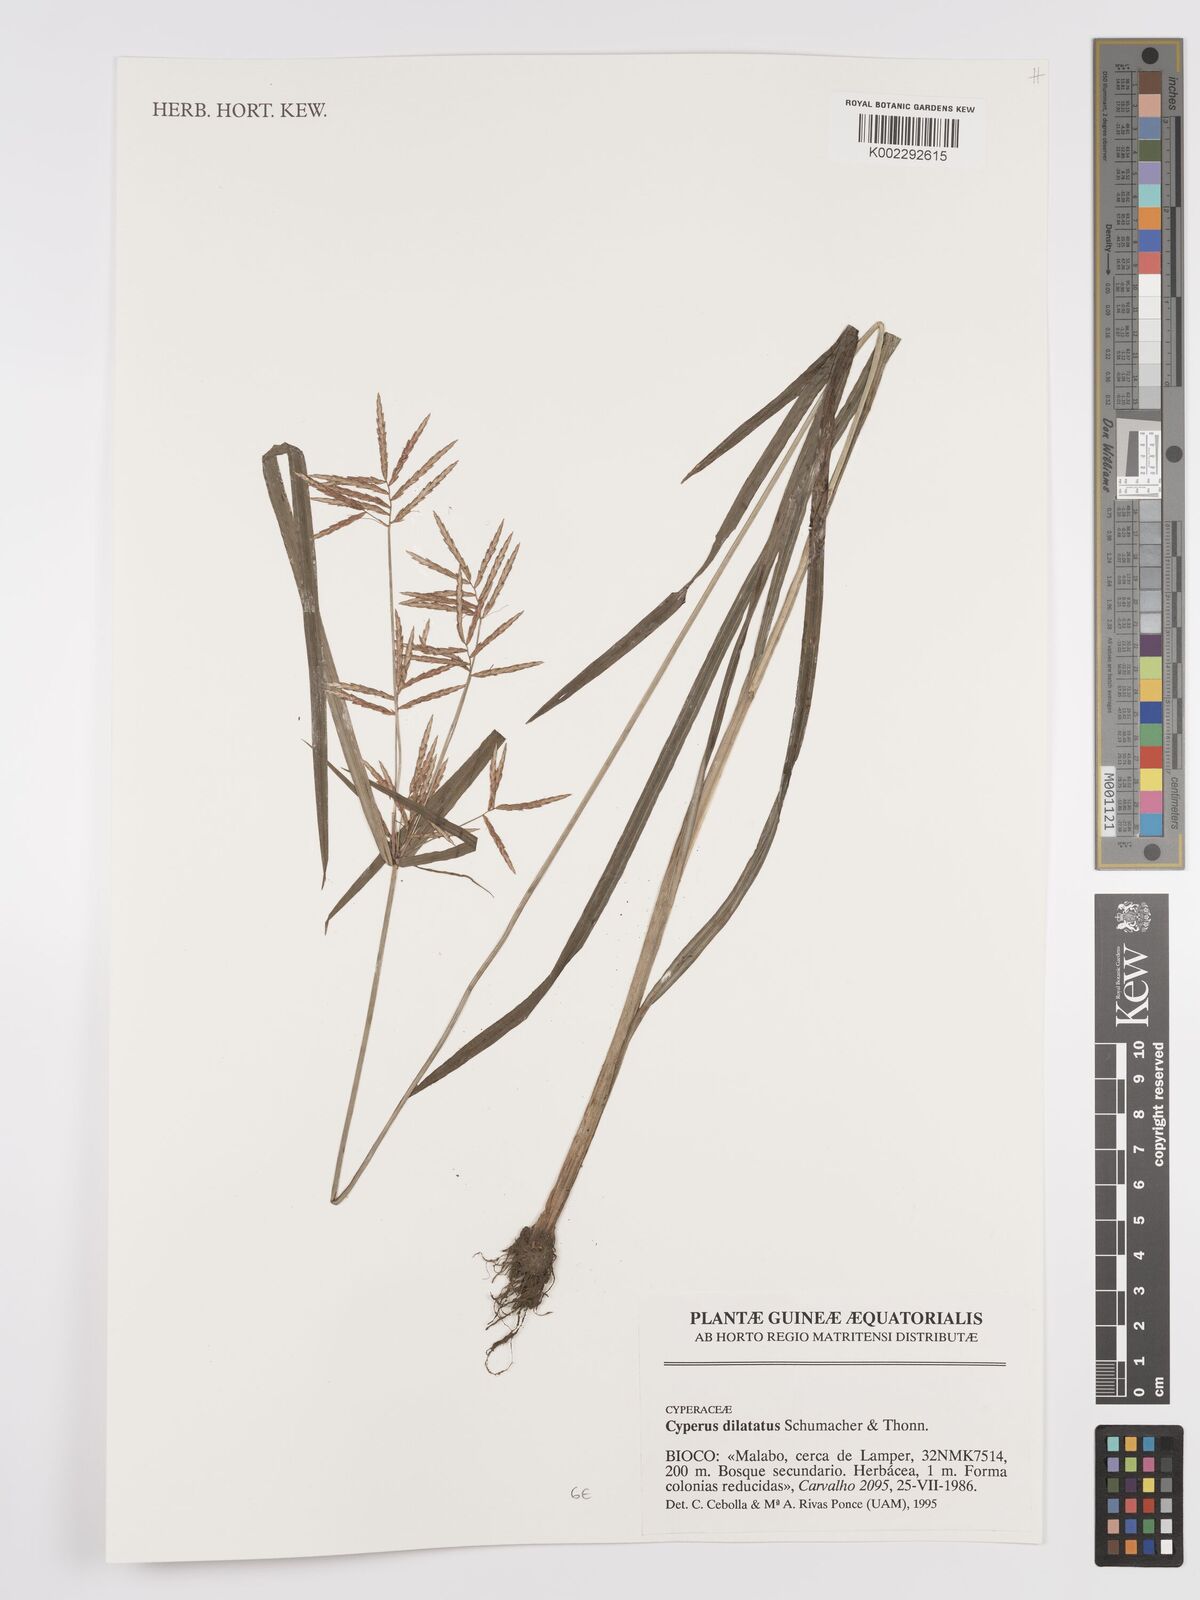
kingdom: Plantae
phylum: Tracheophyta
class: Liliopsida
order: Poales
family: Cyperaceae
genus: Cyperus
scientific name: Cyperus dilatatus
